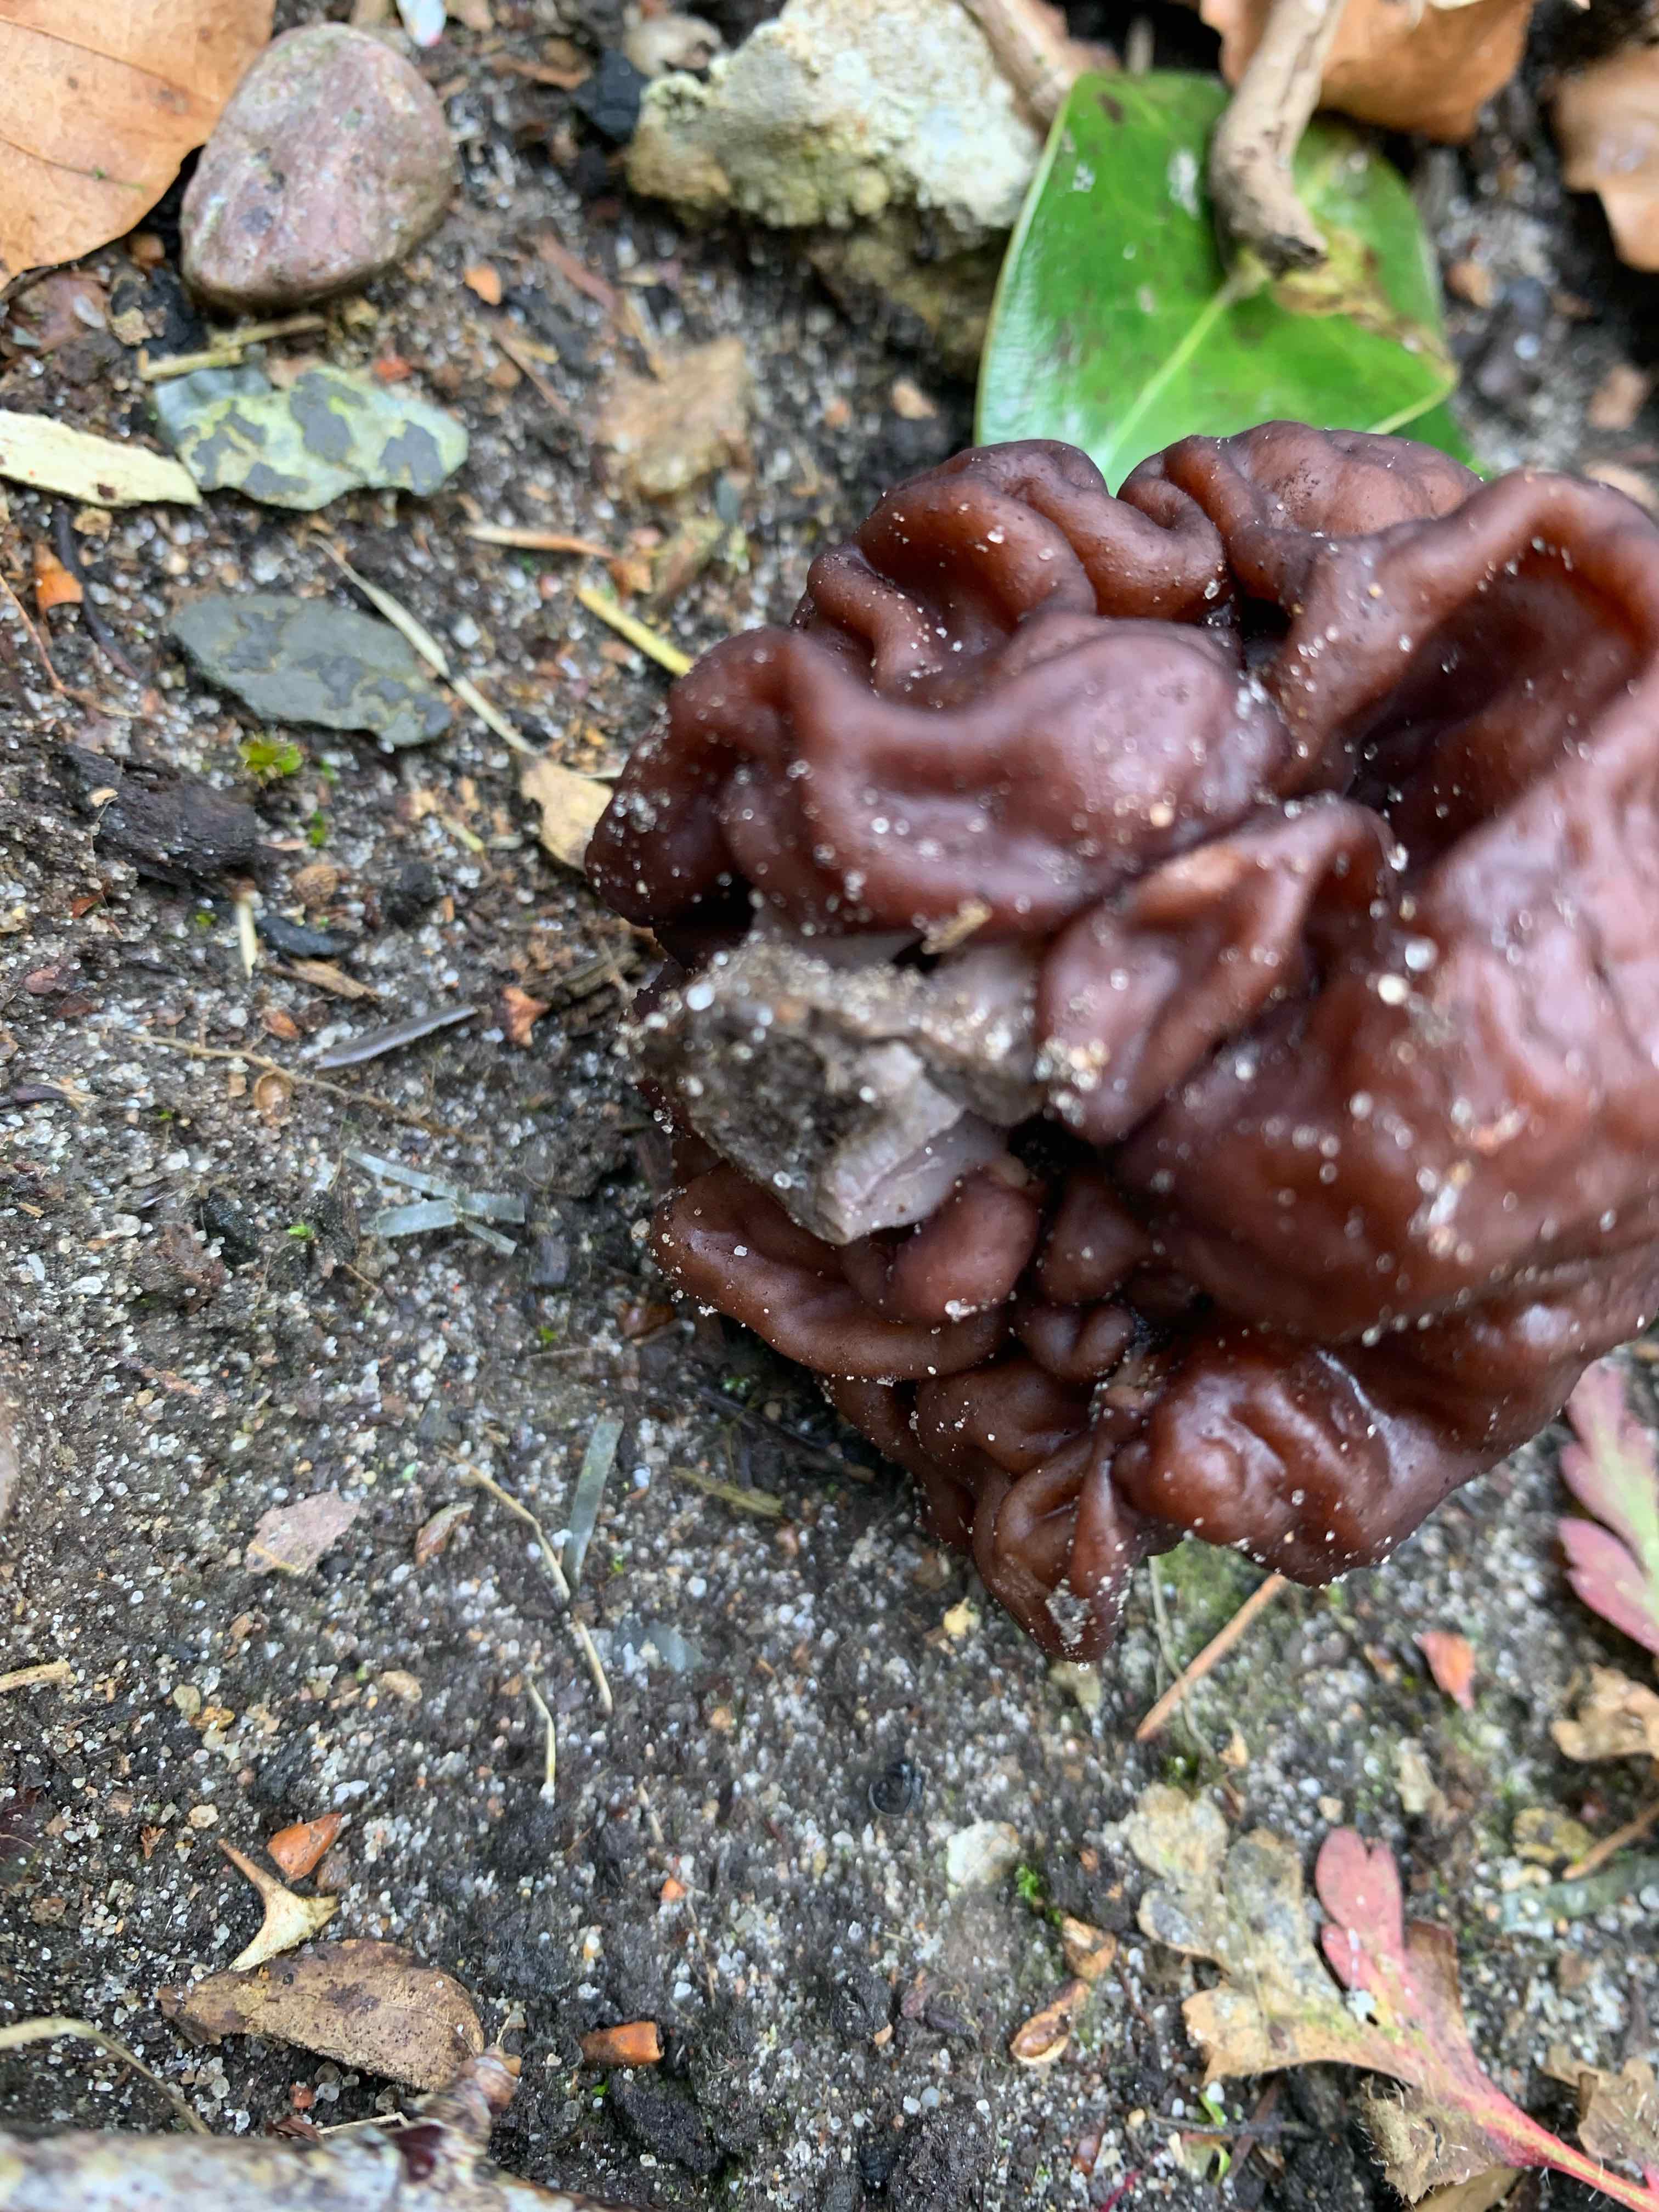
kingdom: Fungi
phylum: Ascomycota
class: Pezizomycetes
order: Pezizales
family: Discinaceae
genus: Gyromitra
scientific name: Gyromitra esculenta
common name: ægte stenmorkel
